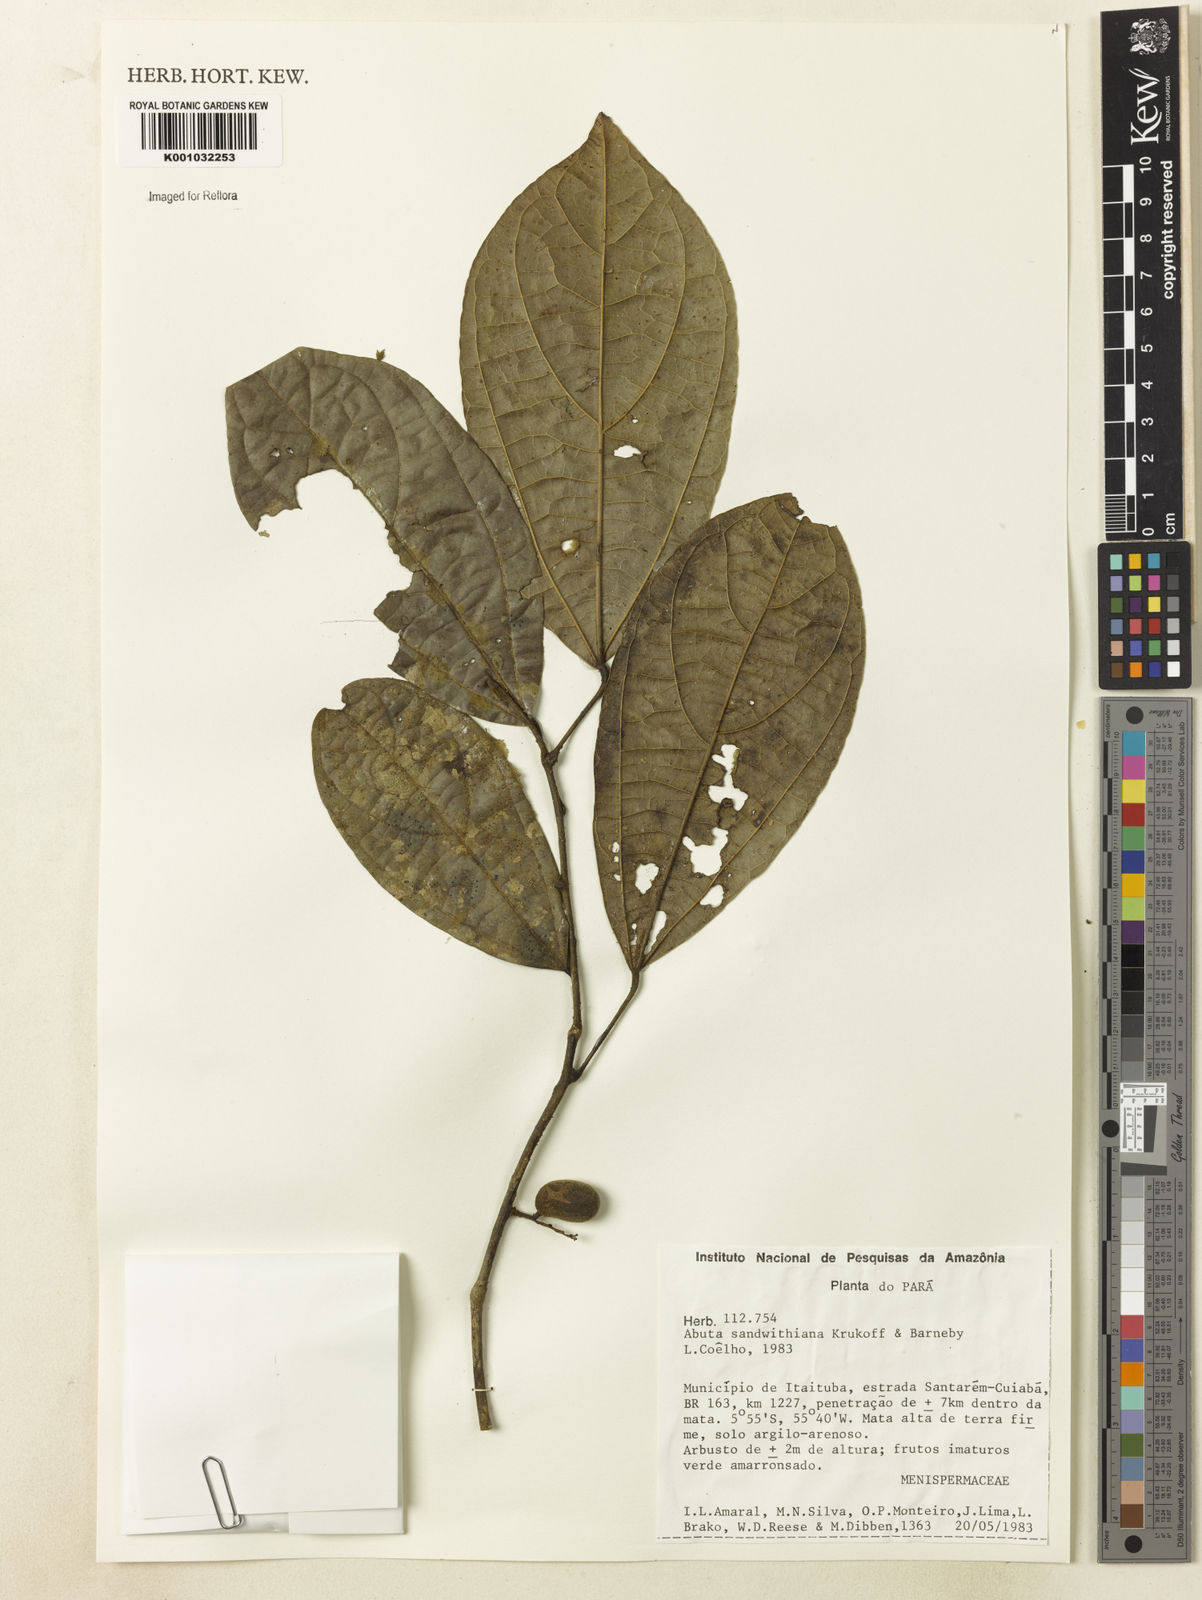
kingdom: Plantae
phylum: Tracheophyta
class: Magnoliopsida
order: Ranunculales
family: Menispermaceae
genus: Abuta
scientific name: Abuta sandwithiana
